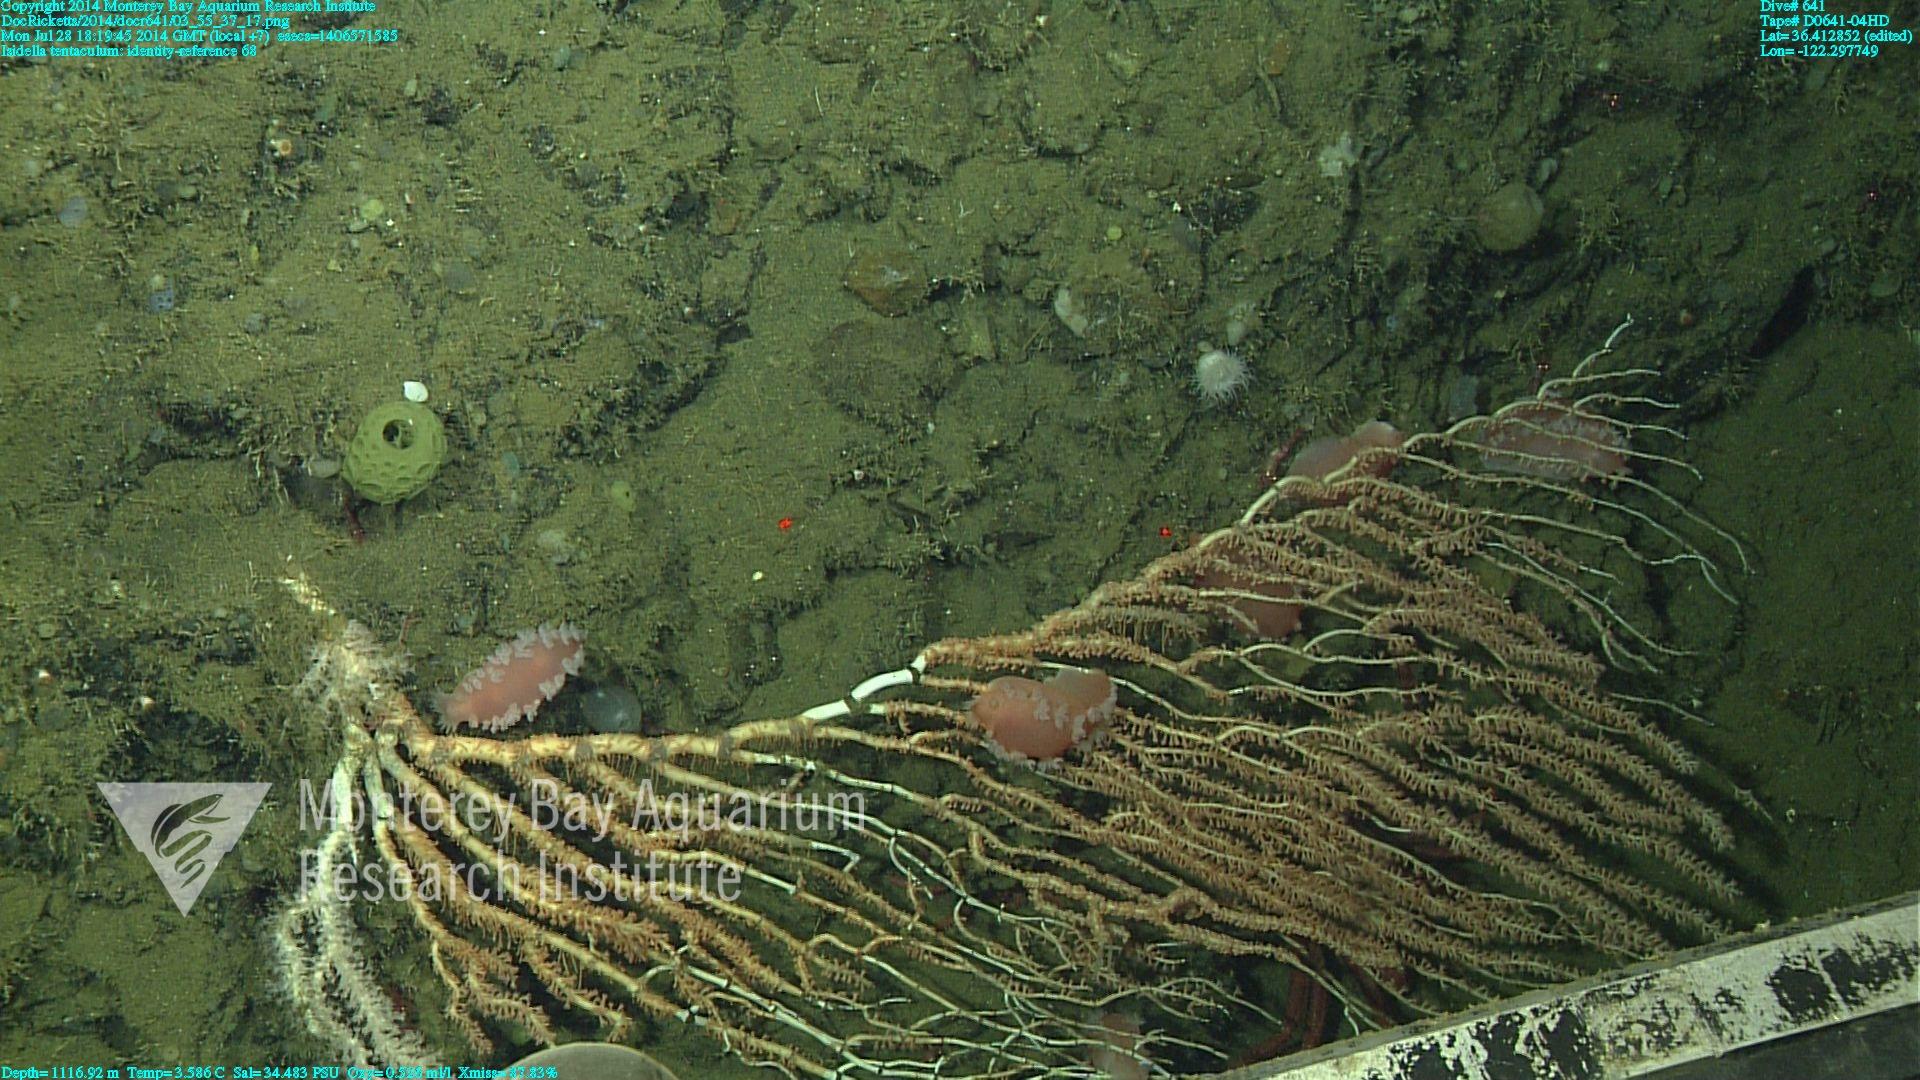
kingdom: Animalia
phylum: Cnidaria
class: Anthozoa
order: Scleralcyonacea
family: Keratoisididae
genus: Isidella
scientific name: Isidella tentaculum
